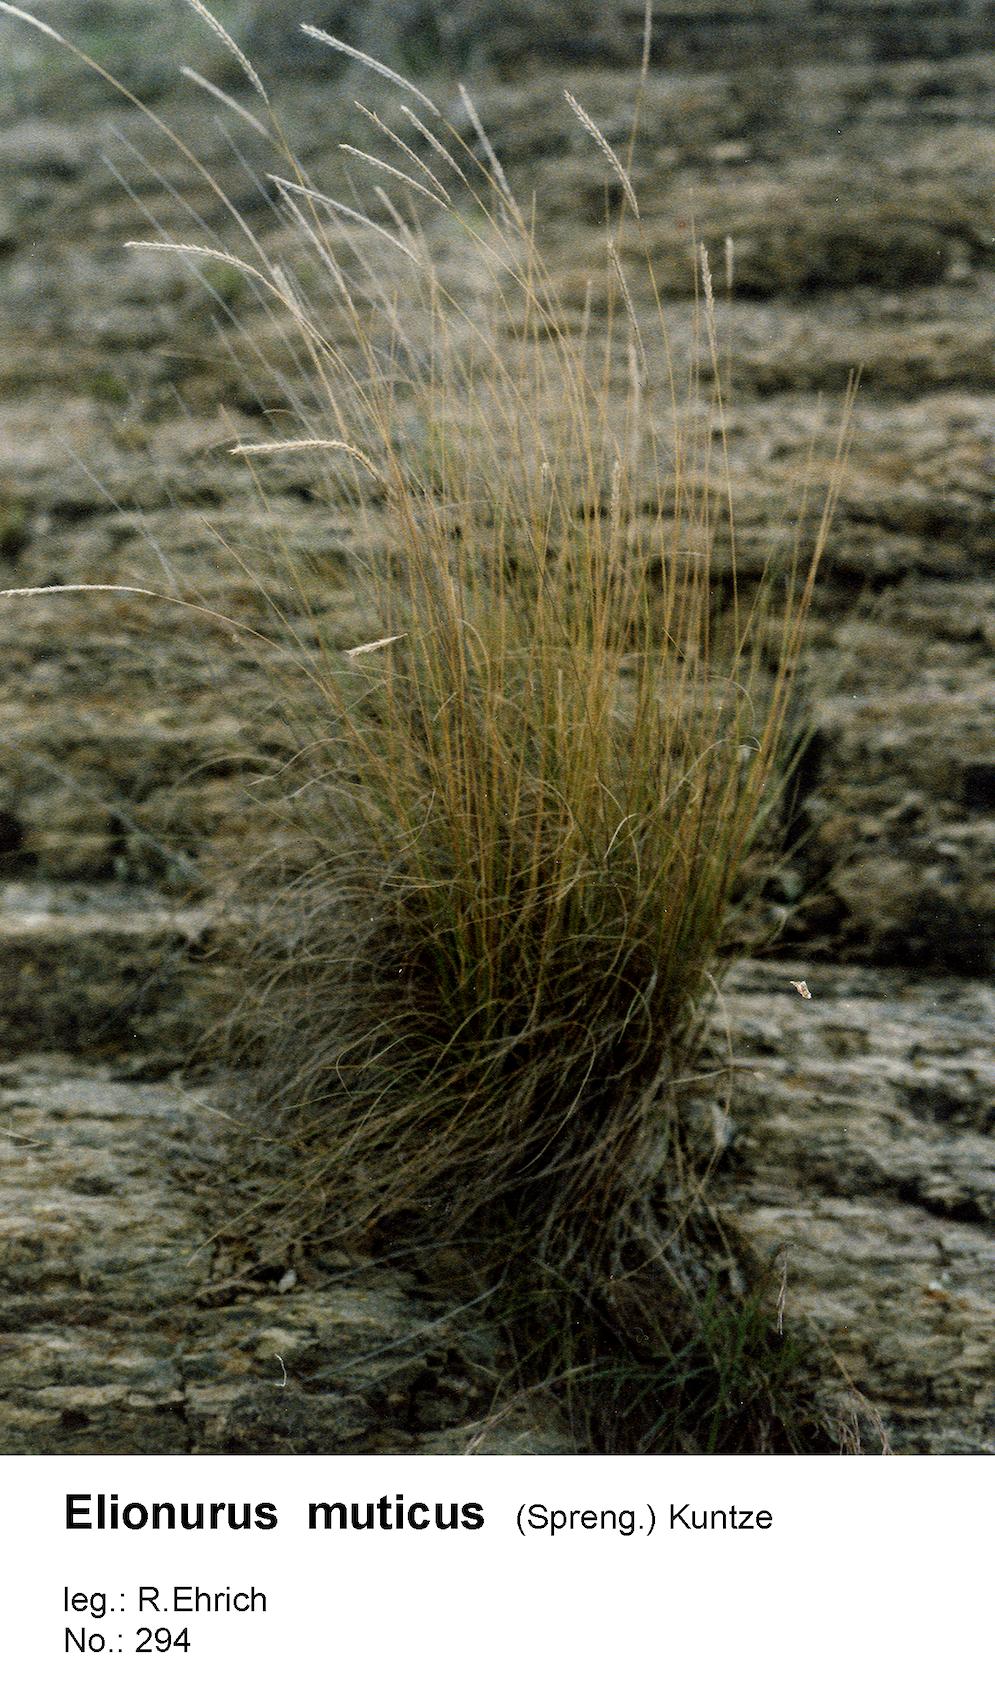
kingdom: Plantae
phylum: Tracheophyta
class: Liliopsida
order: Poales
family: Poaceae
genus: Elionurus
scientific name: Elionurus muticus
